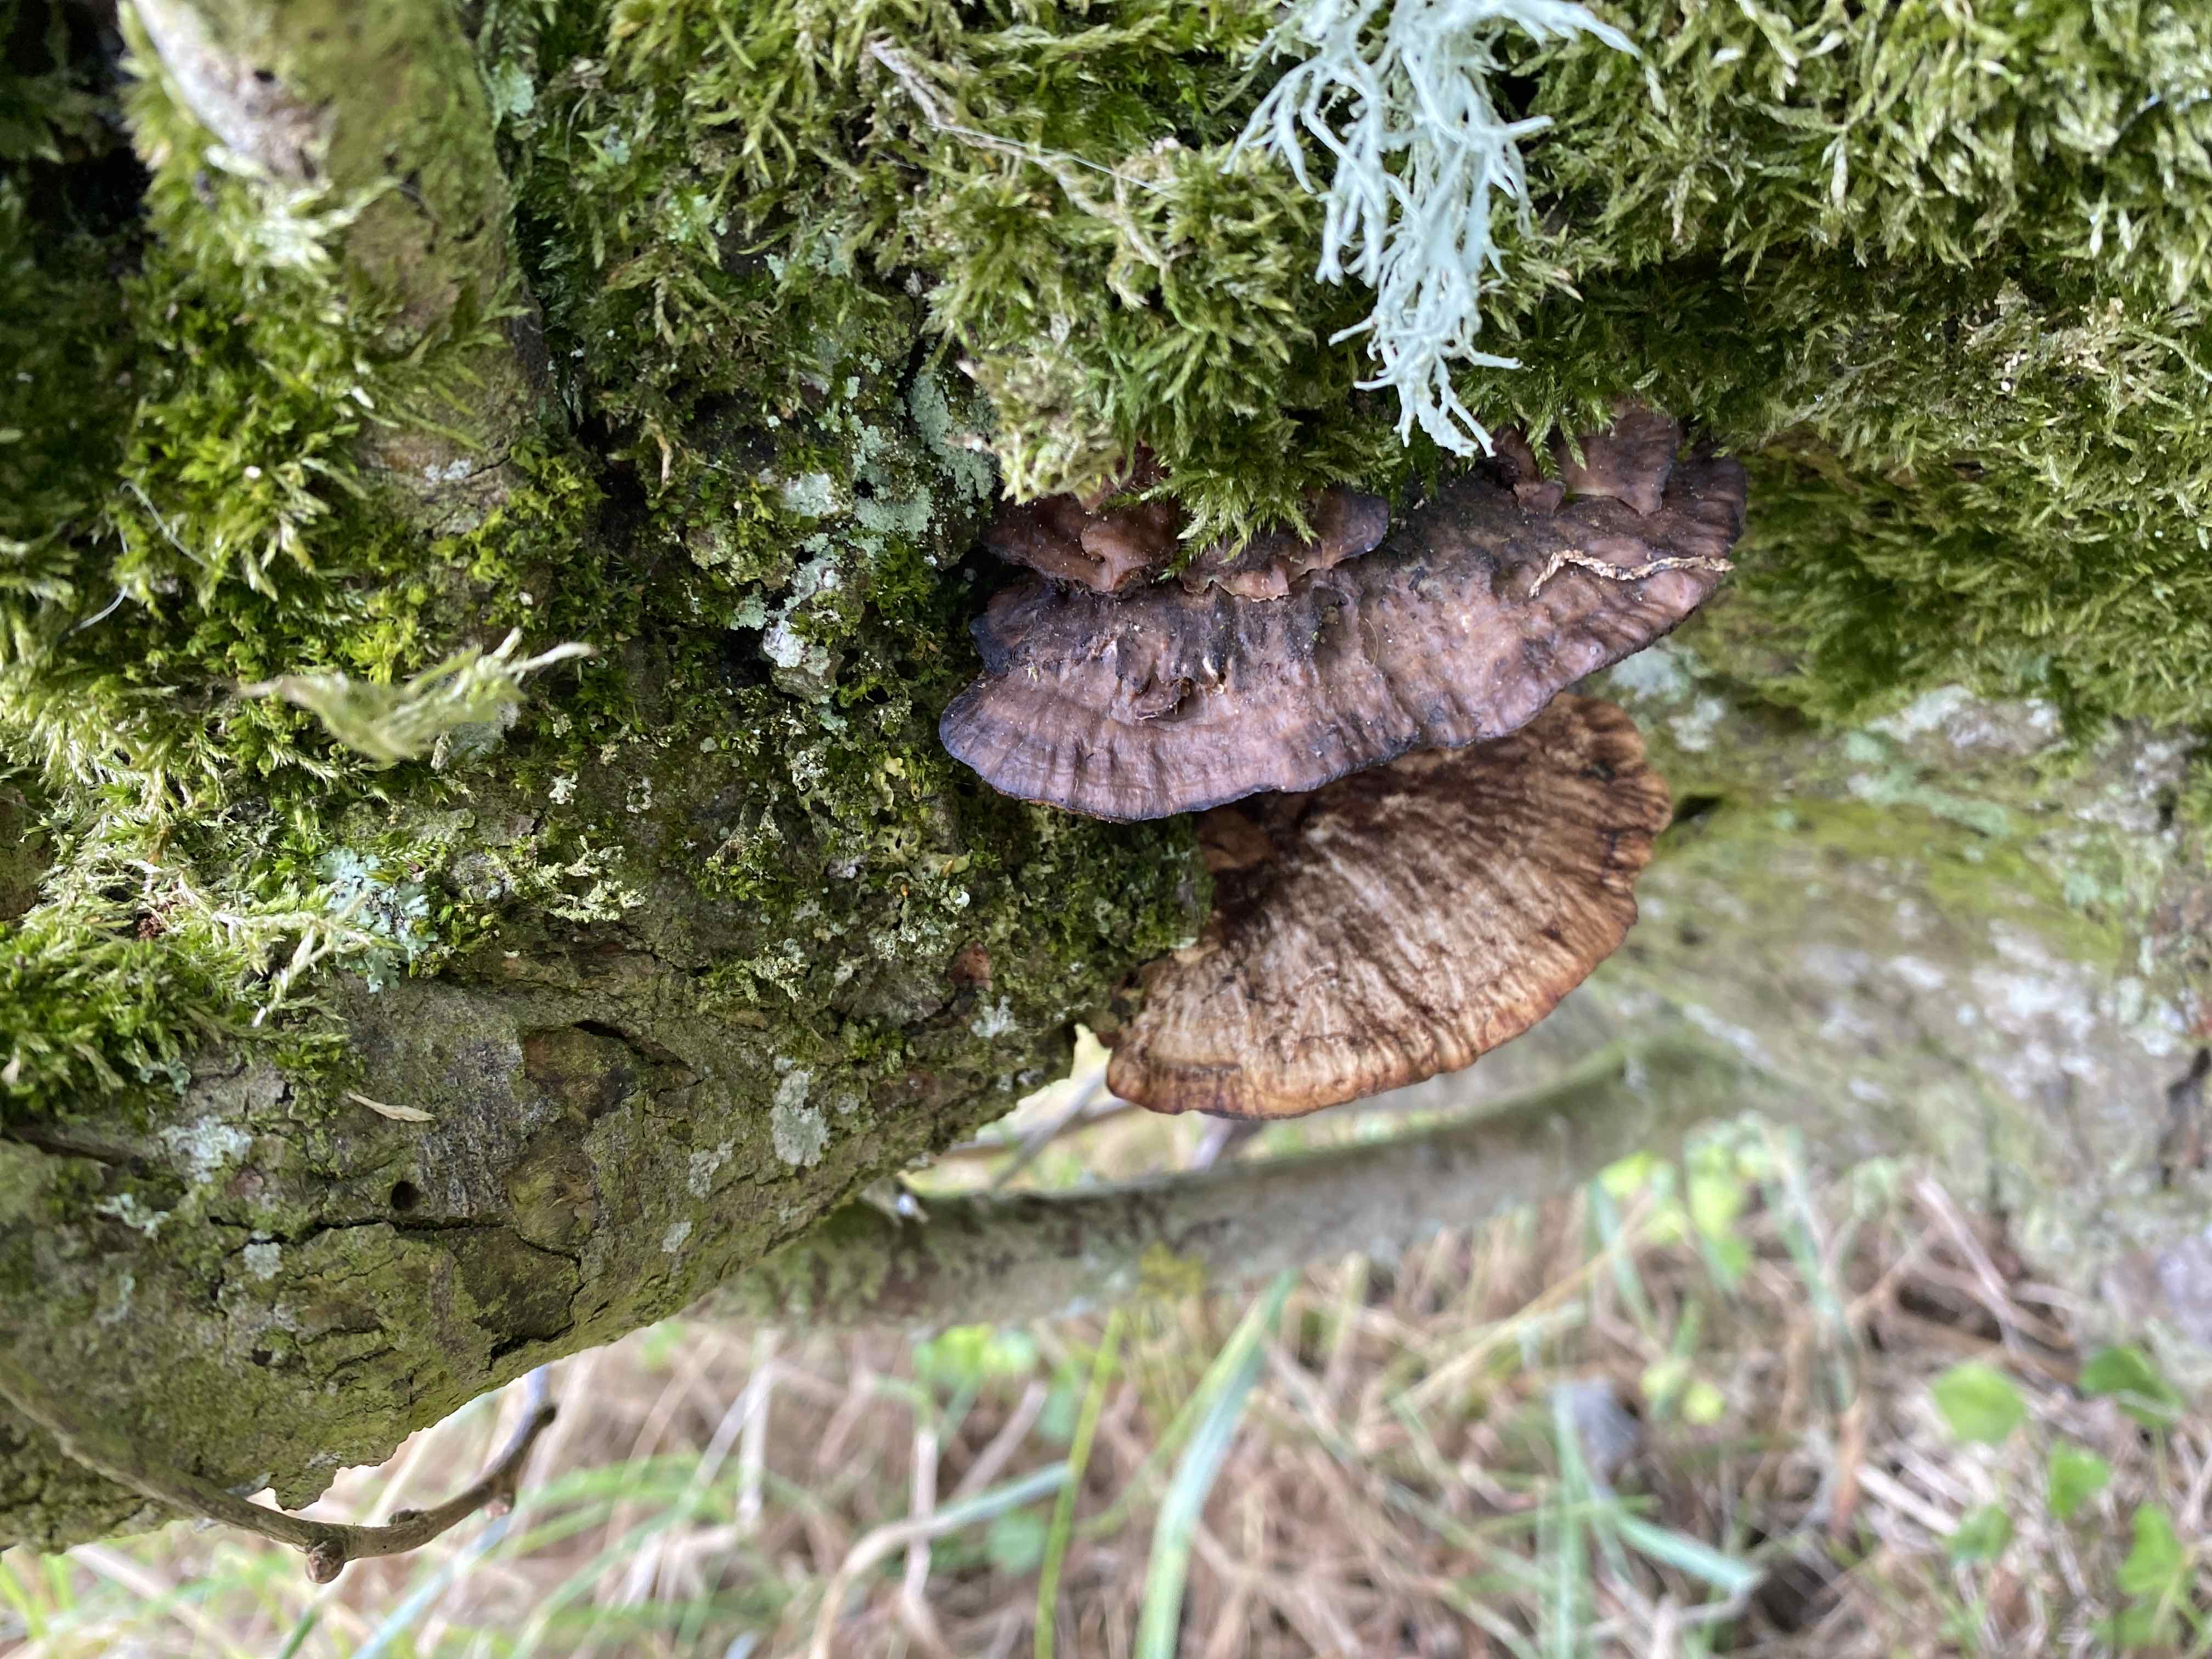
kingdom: Fungi
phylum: Basidiomycota
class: Agaricomycetes
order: Polyporales
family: Polyporaceae
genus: Daedaleopsis
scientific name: Daedaleopsis confragosa
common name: rødmende læderporesvamp
